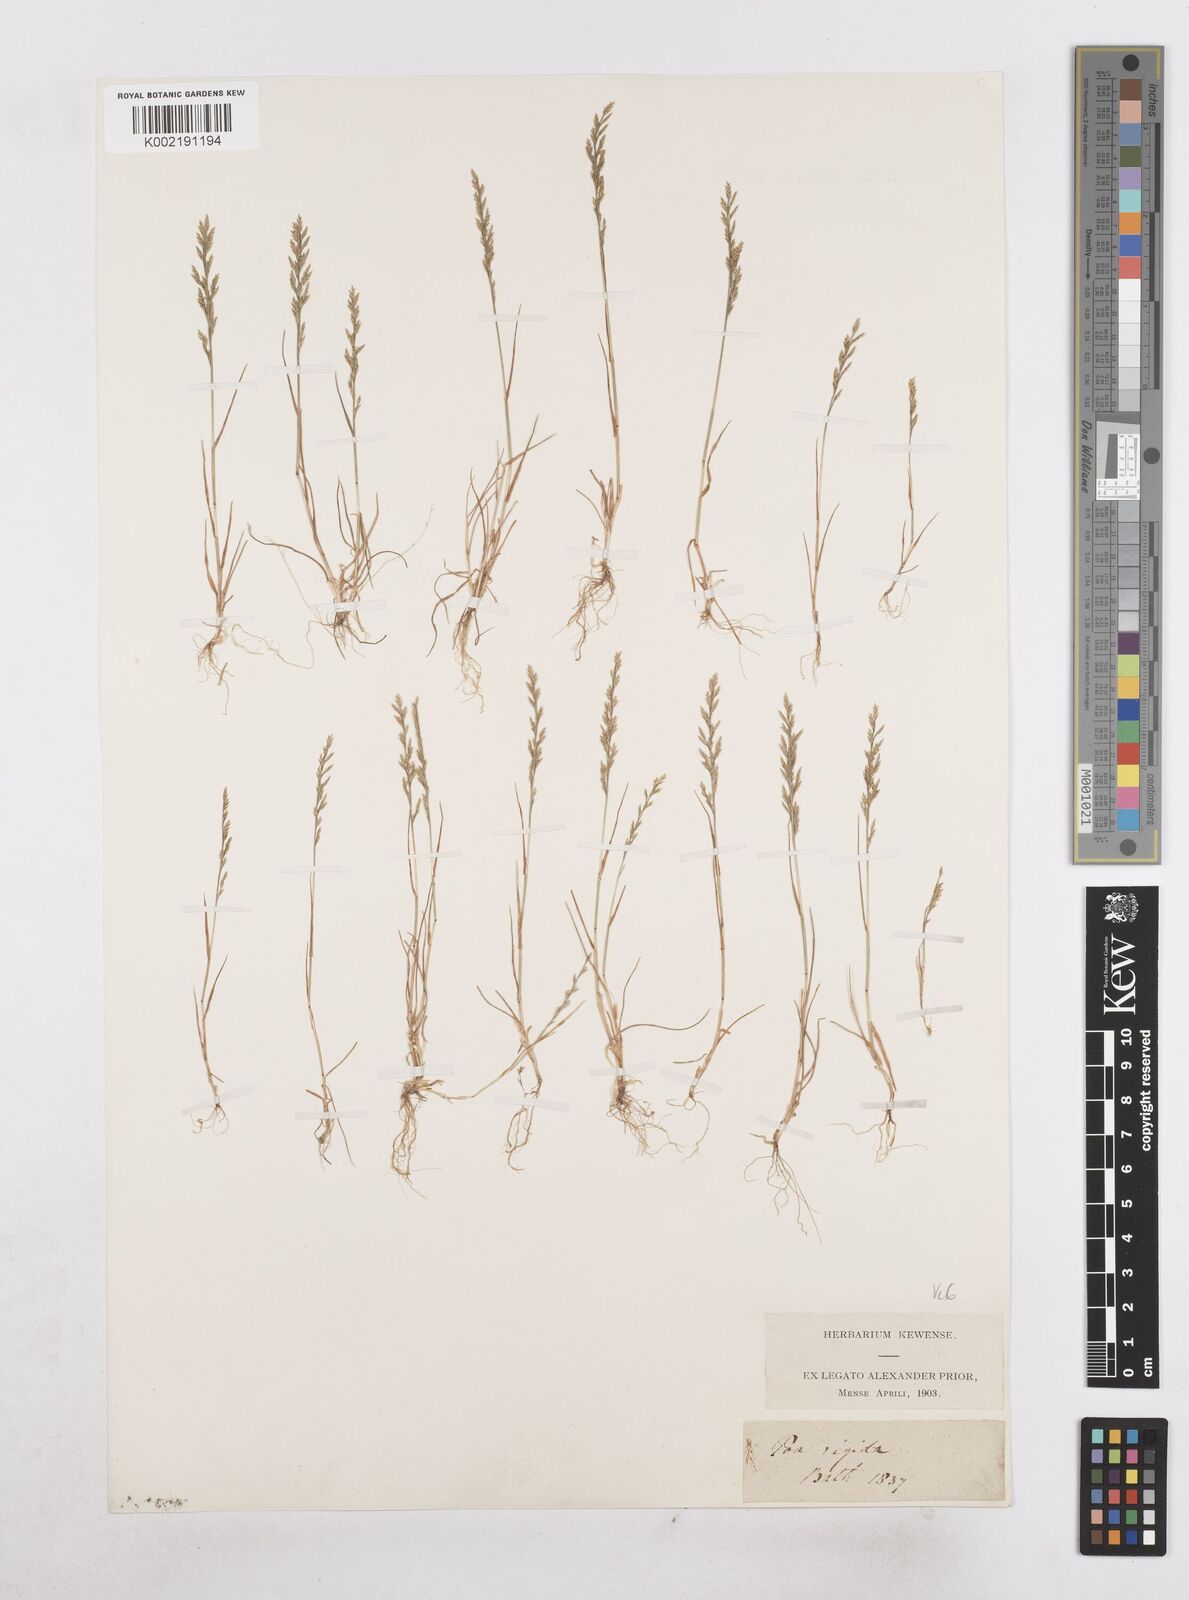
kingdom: Plantae
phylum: Tracheophyta
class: Liliopsida
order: Poales
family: Poaceae
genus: Catapodium
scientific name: Catapodium rigidum
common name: Fern-grass
